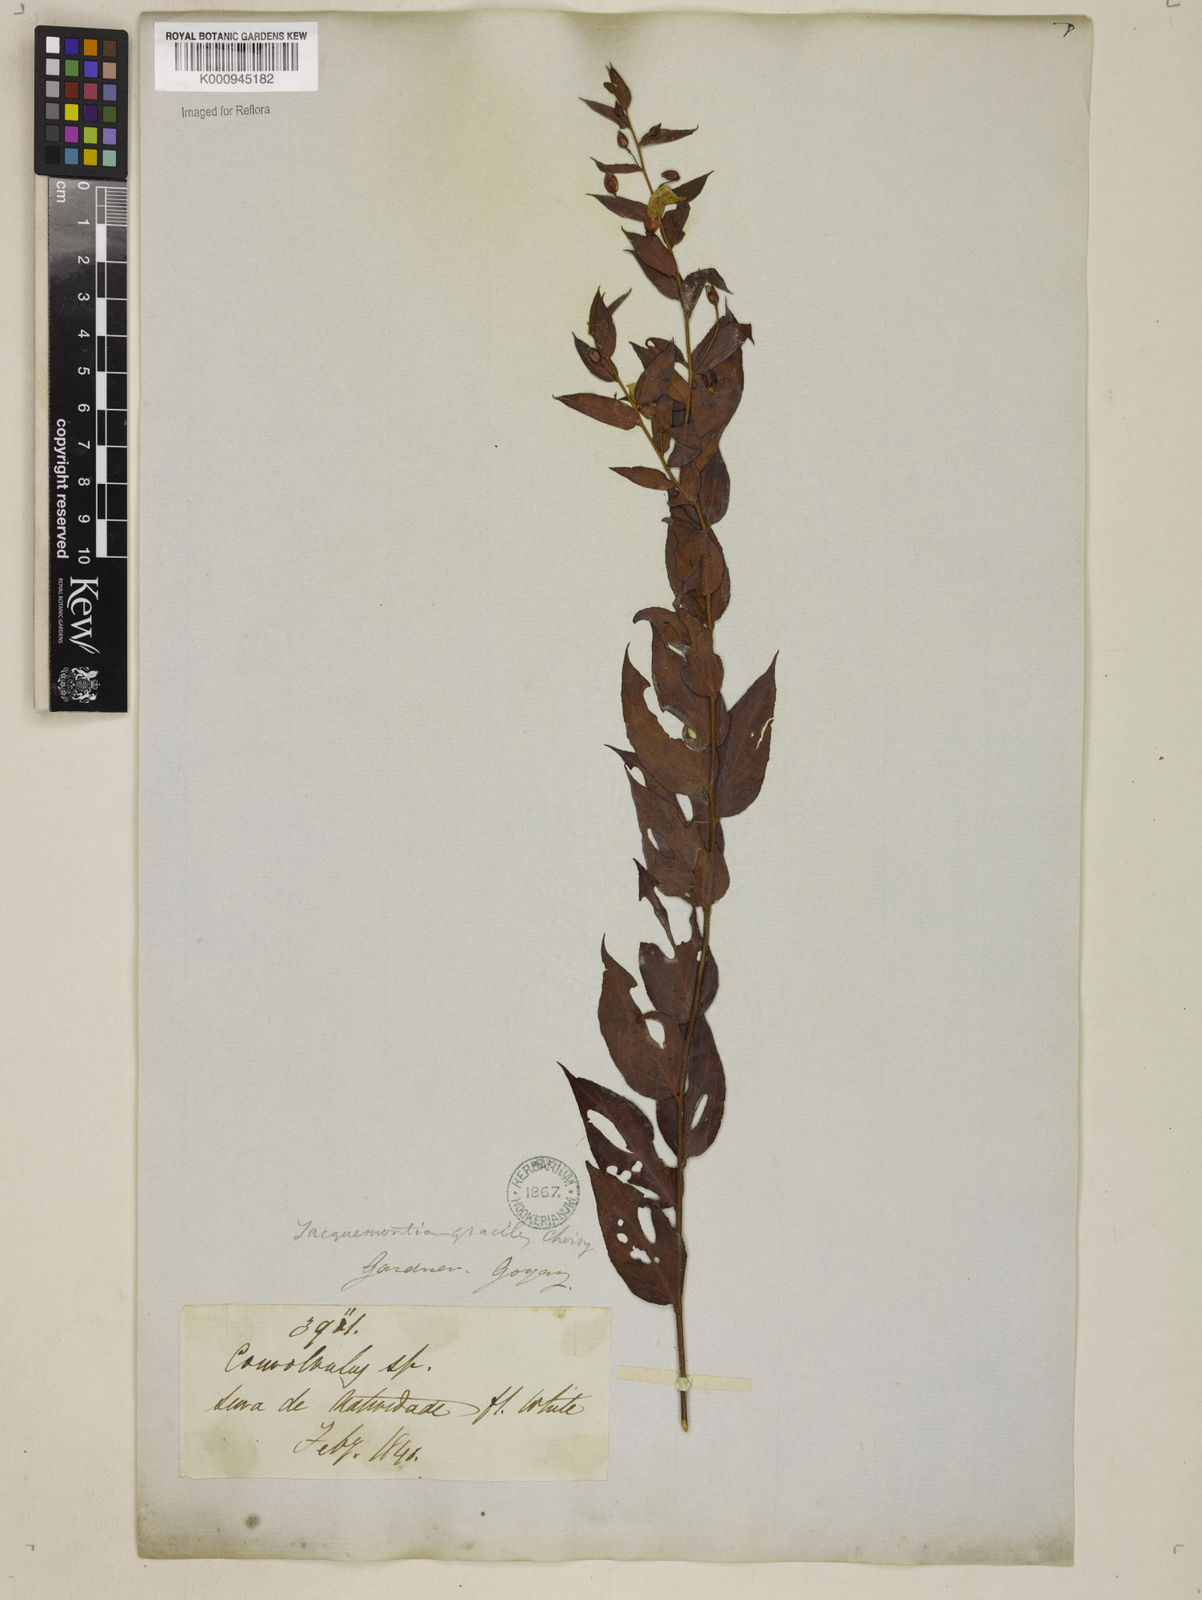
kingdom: Plantae
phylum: Tracheophyta
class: Magnoliopsida
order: Solanales
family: Convolvulaceae
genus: Jacquemontia
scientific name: Jacquemontia gracilis
